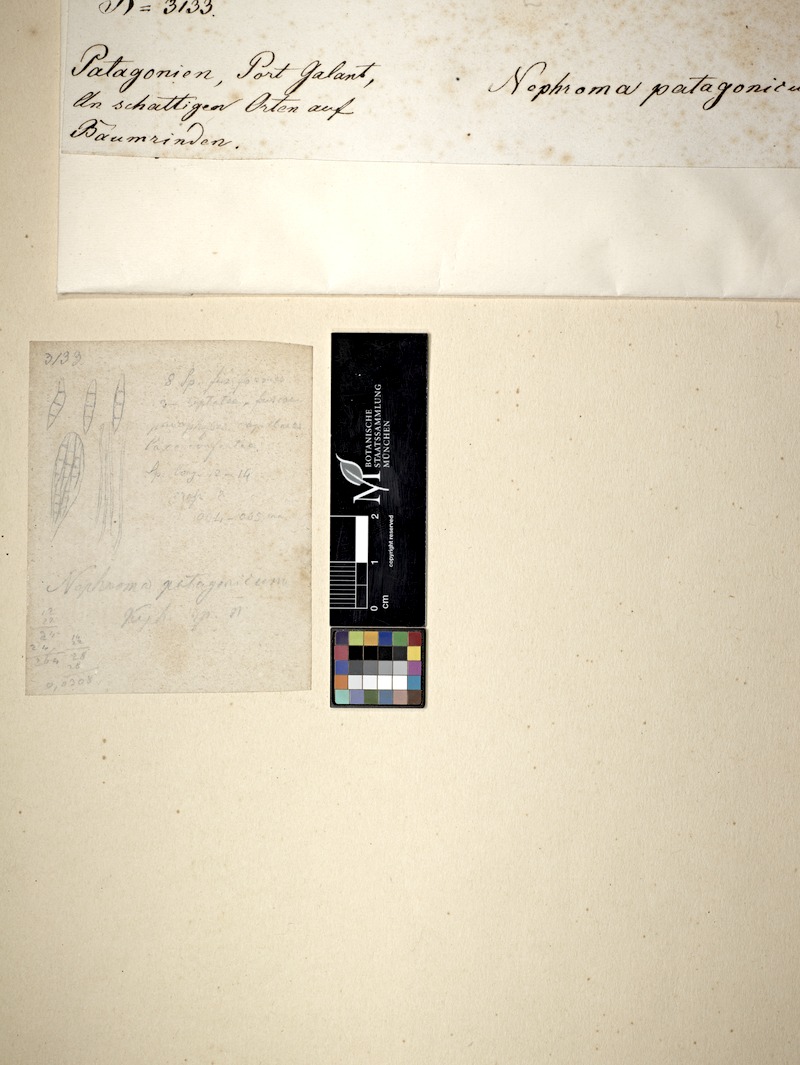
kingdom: Fungi
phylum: Ascomycota
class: Lecanoromycetes
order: Peltigerales
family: Nephromataceae
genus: Nephroma
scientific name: Nephroma
